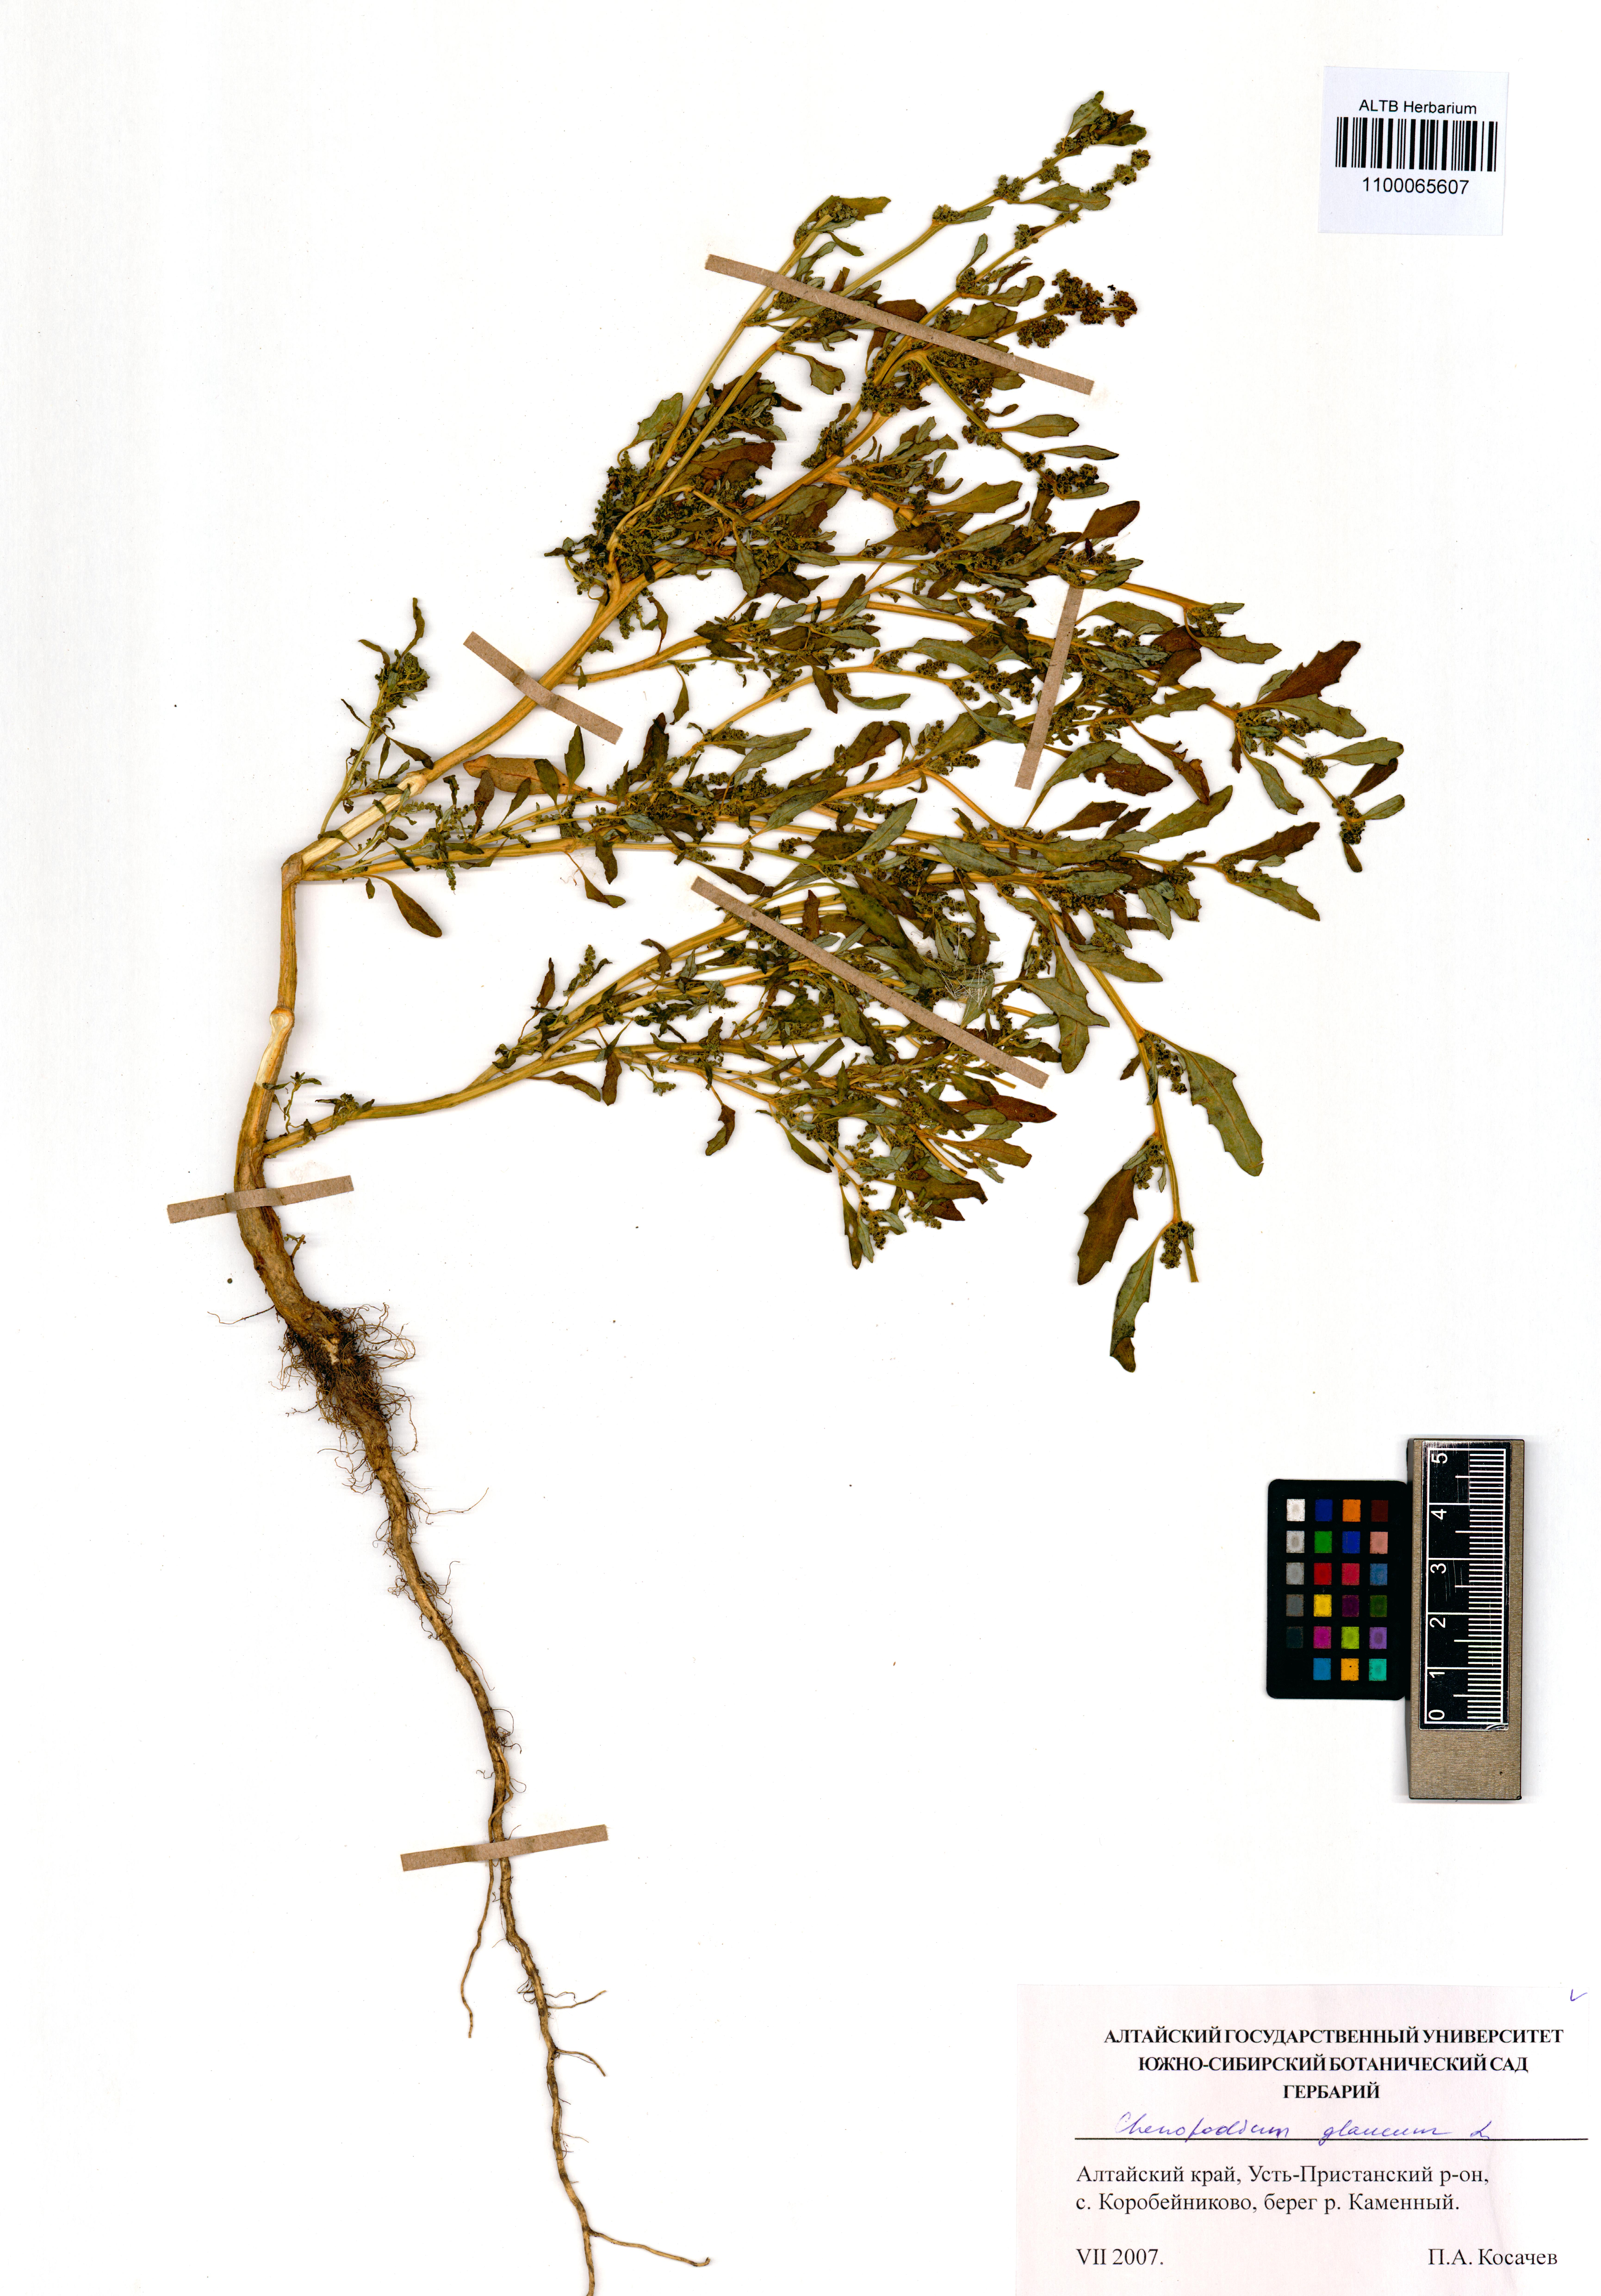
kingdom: Plantae
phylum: Tracheophyta
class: Magnoliopsida
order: Caryophyllales
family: Amaranthaceae
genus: Oxybasis
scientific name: Oxybasis glauca
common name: Glaucous goosefoot
